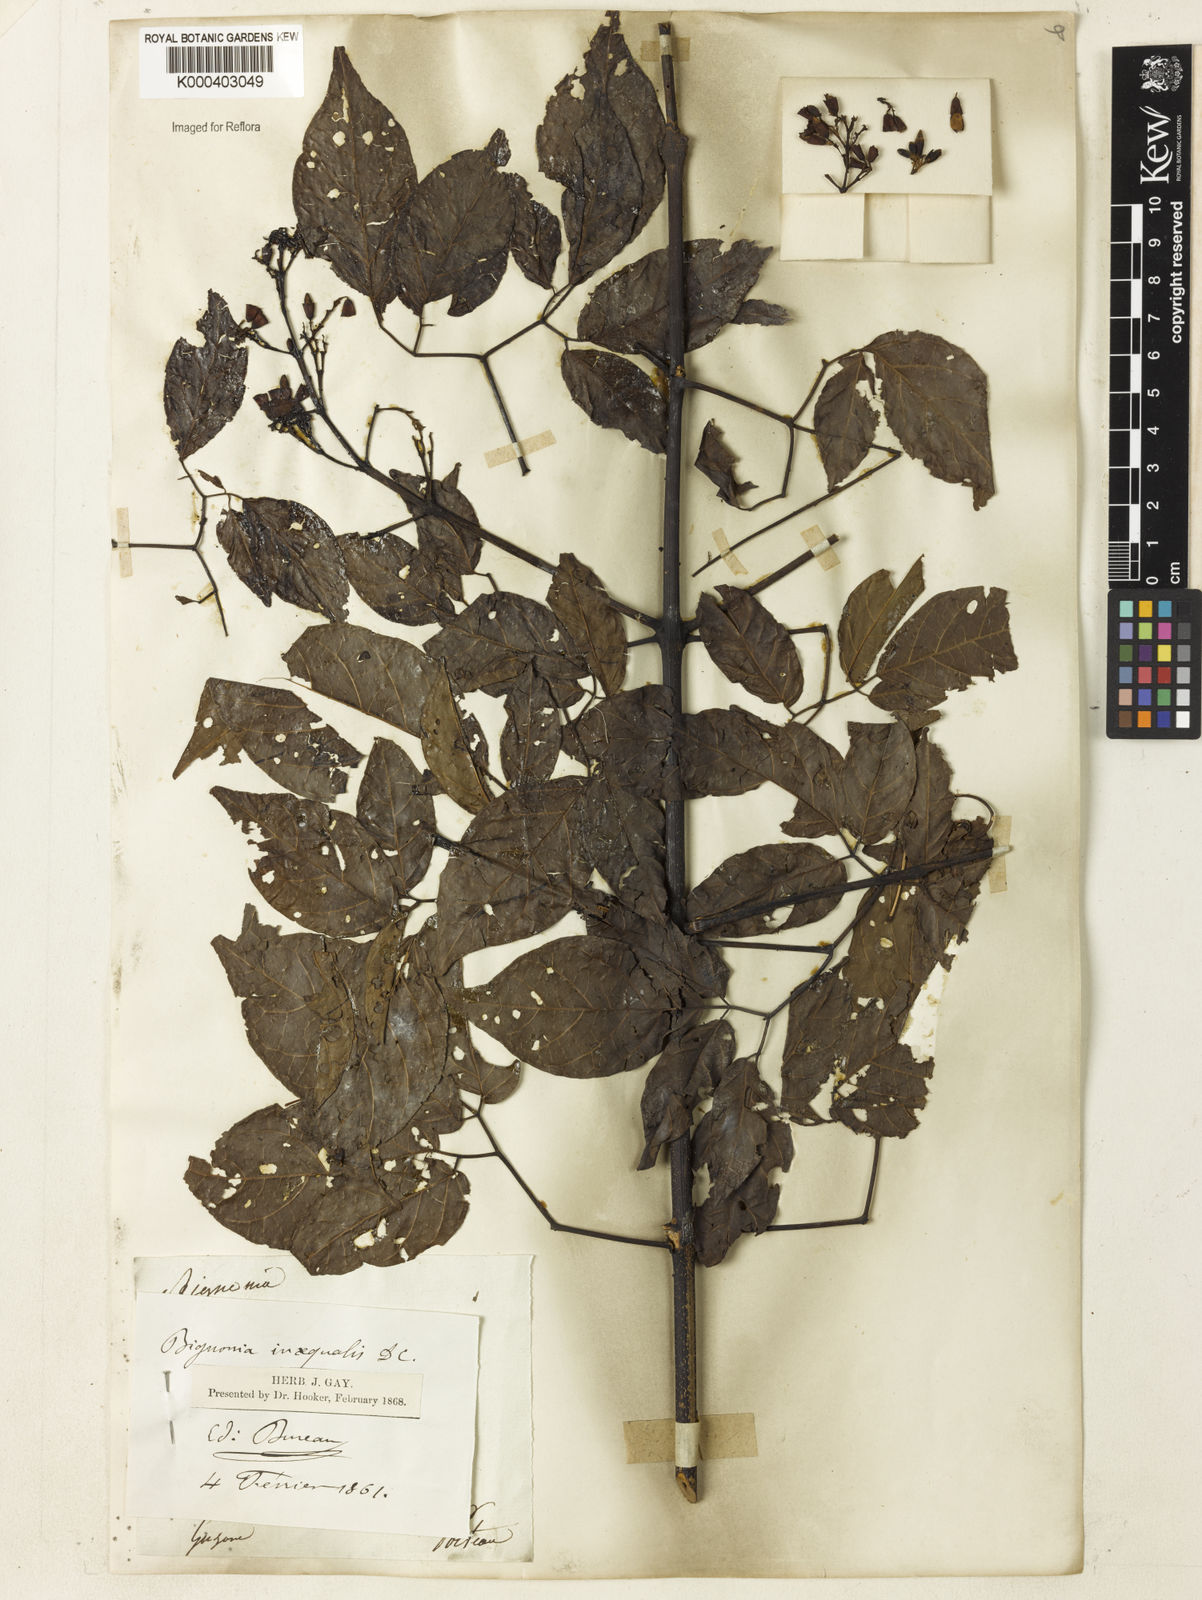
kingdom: Plantae
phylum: Tracheophyta
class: Magnoliopsida
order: Lamiales
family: Bignoniaceae
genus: Cuspidaria
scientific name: Cuspidaria inaequalis
